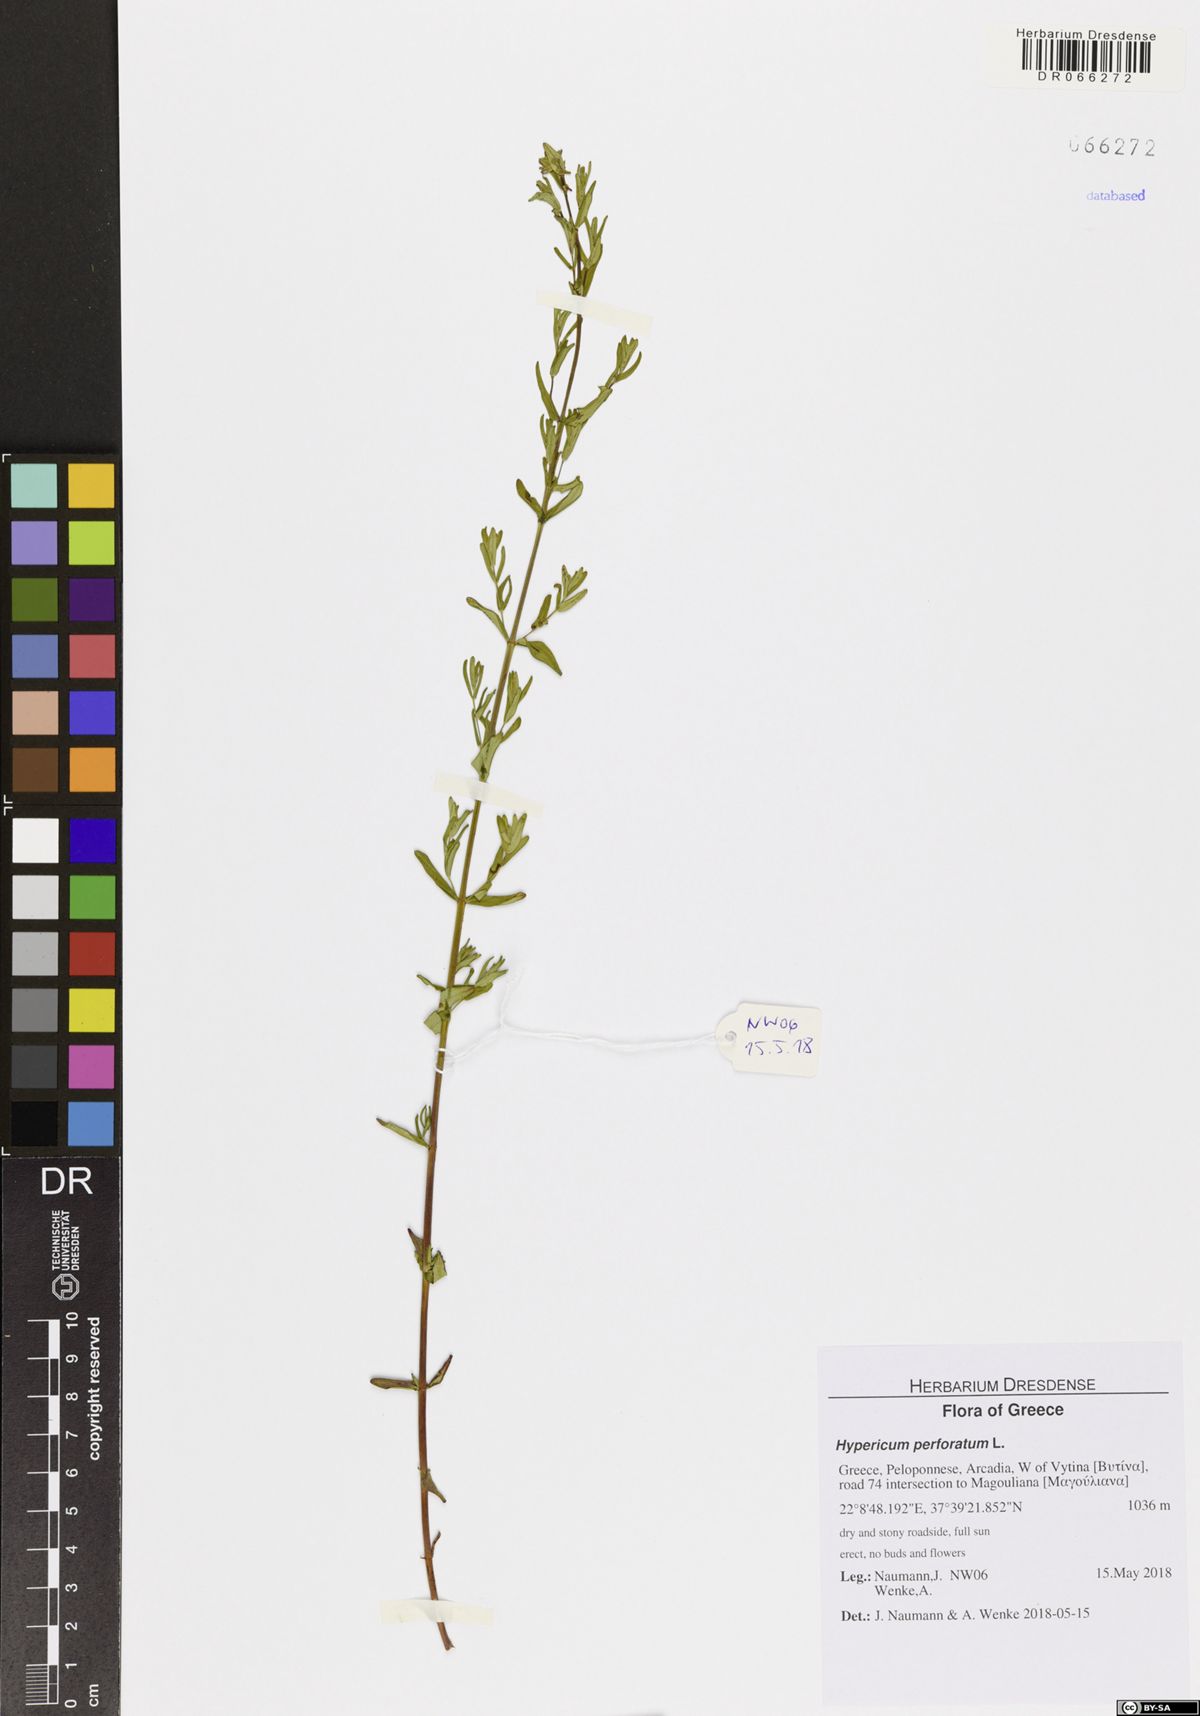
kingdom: Plantae
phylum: Tracheophyta
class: Magnoliopsida
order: Malpighiales
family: Hypericaceae
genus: Hypericum
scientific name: Hypericum perforatum
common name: Common st. johnswort
